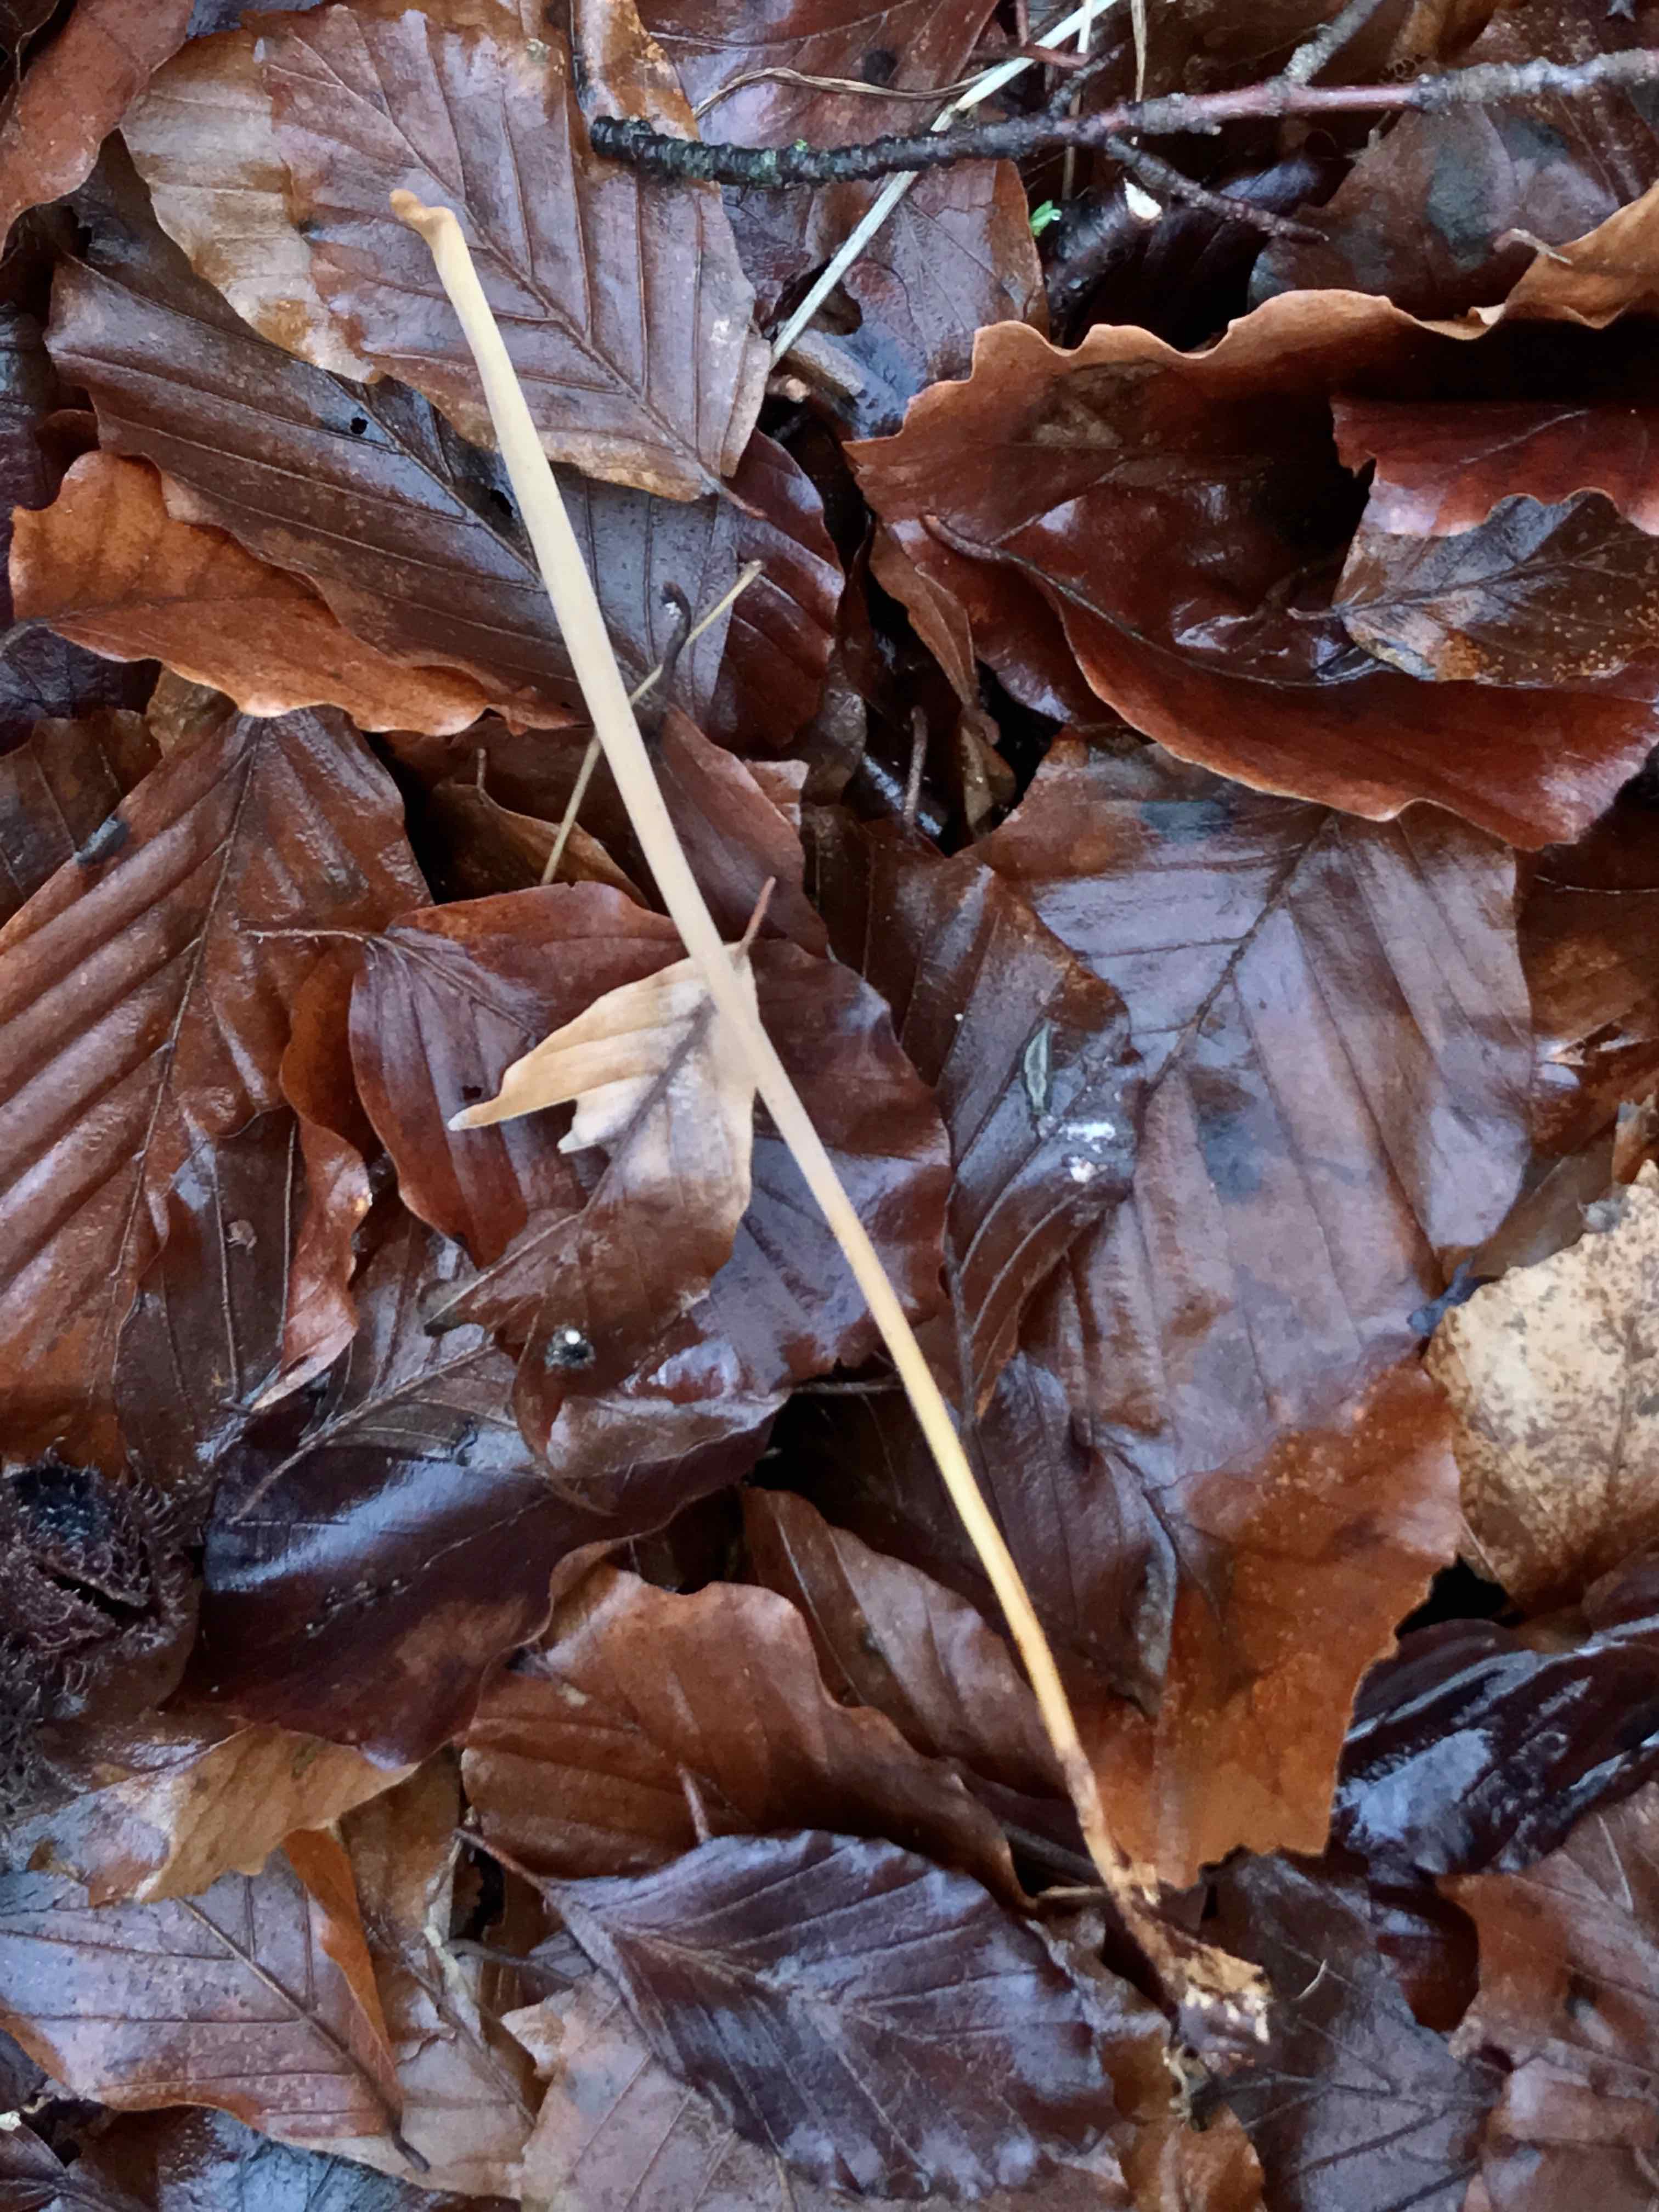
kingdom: Fungi
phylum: Basidiomycota
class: Agaricomycetes
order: Agaricales
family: Typhulaceae
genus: Typhula
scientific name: Typhula fistulosa
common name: pibet rørkølle
